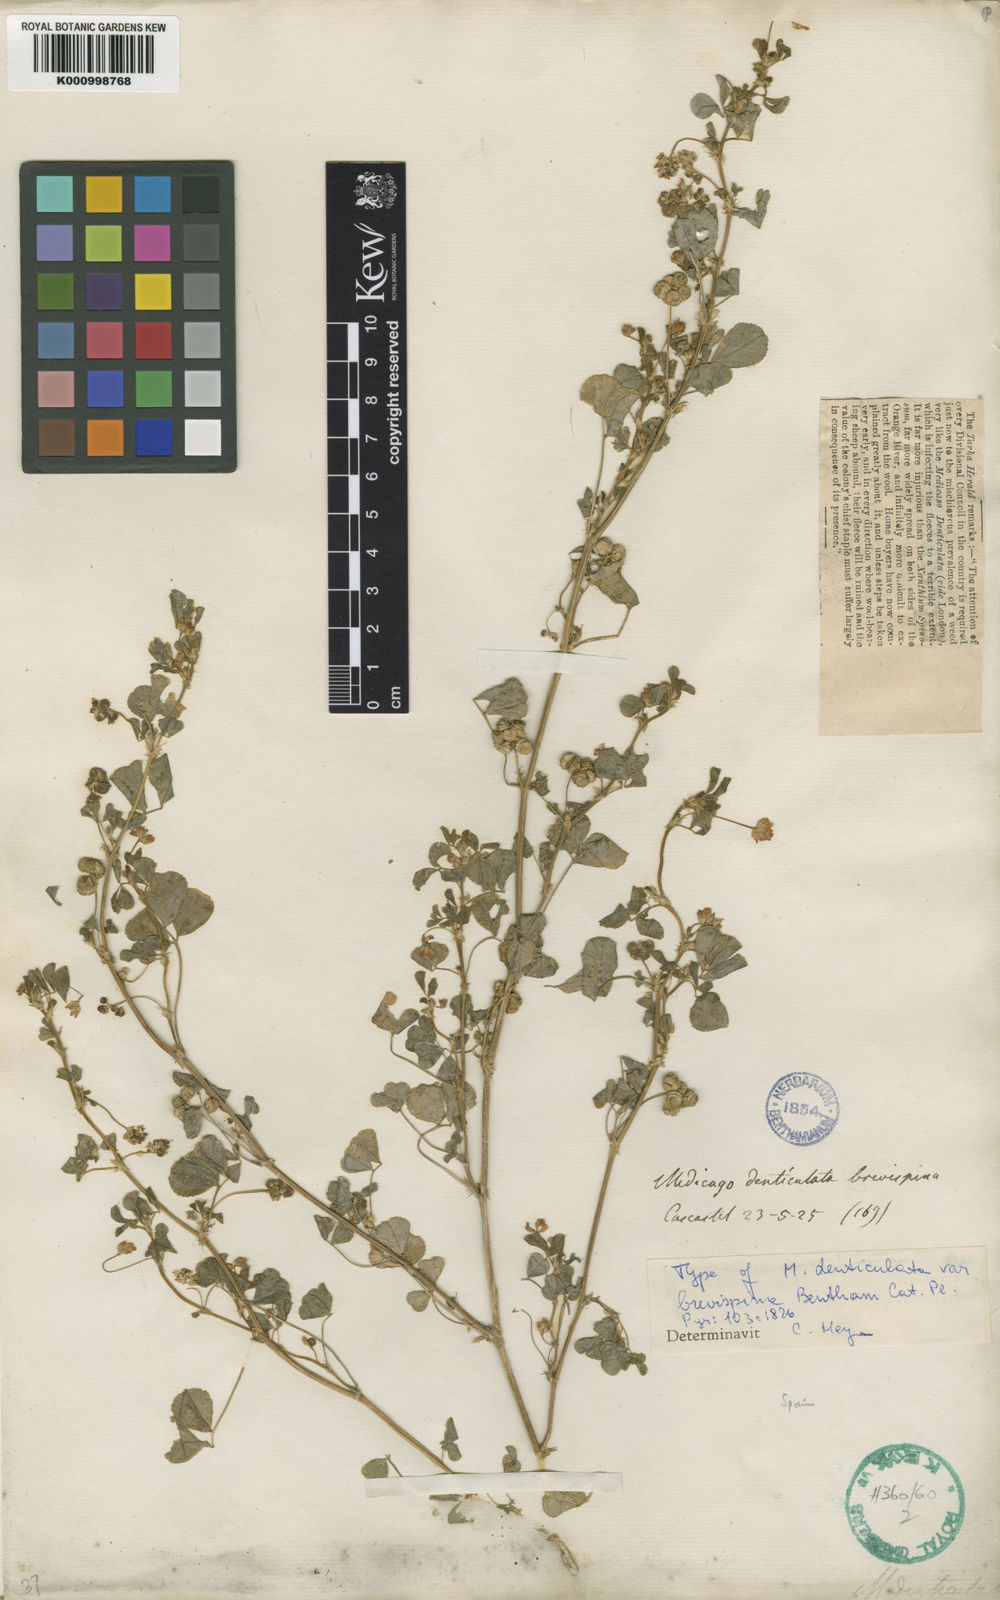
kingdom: Plantae
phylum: Tracheophyta
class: Magnoliopsida
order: Fabales
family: Fabaceae
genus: Medicago
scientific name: Medicago polymorpha
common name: Burclover
